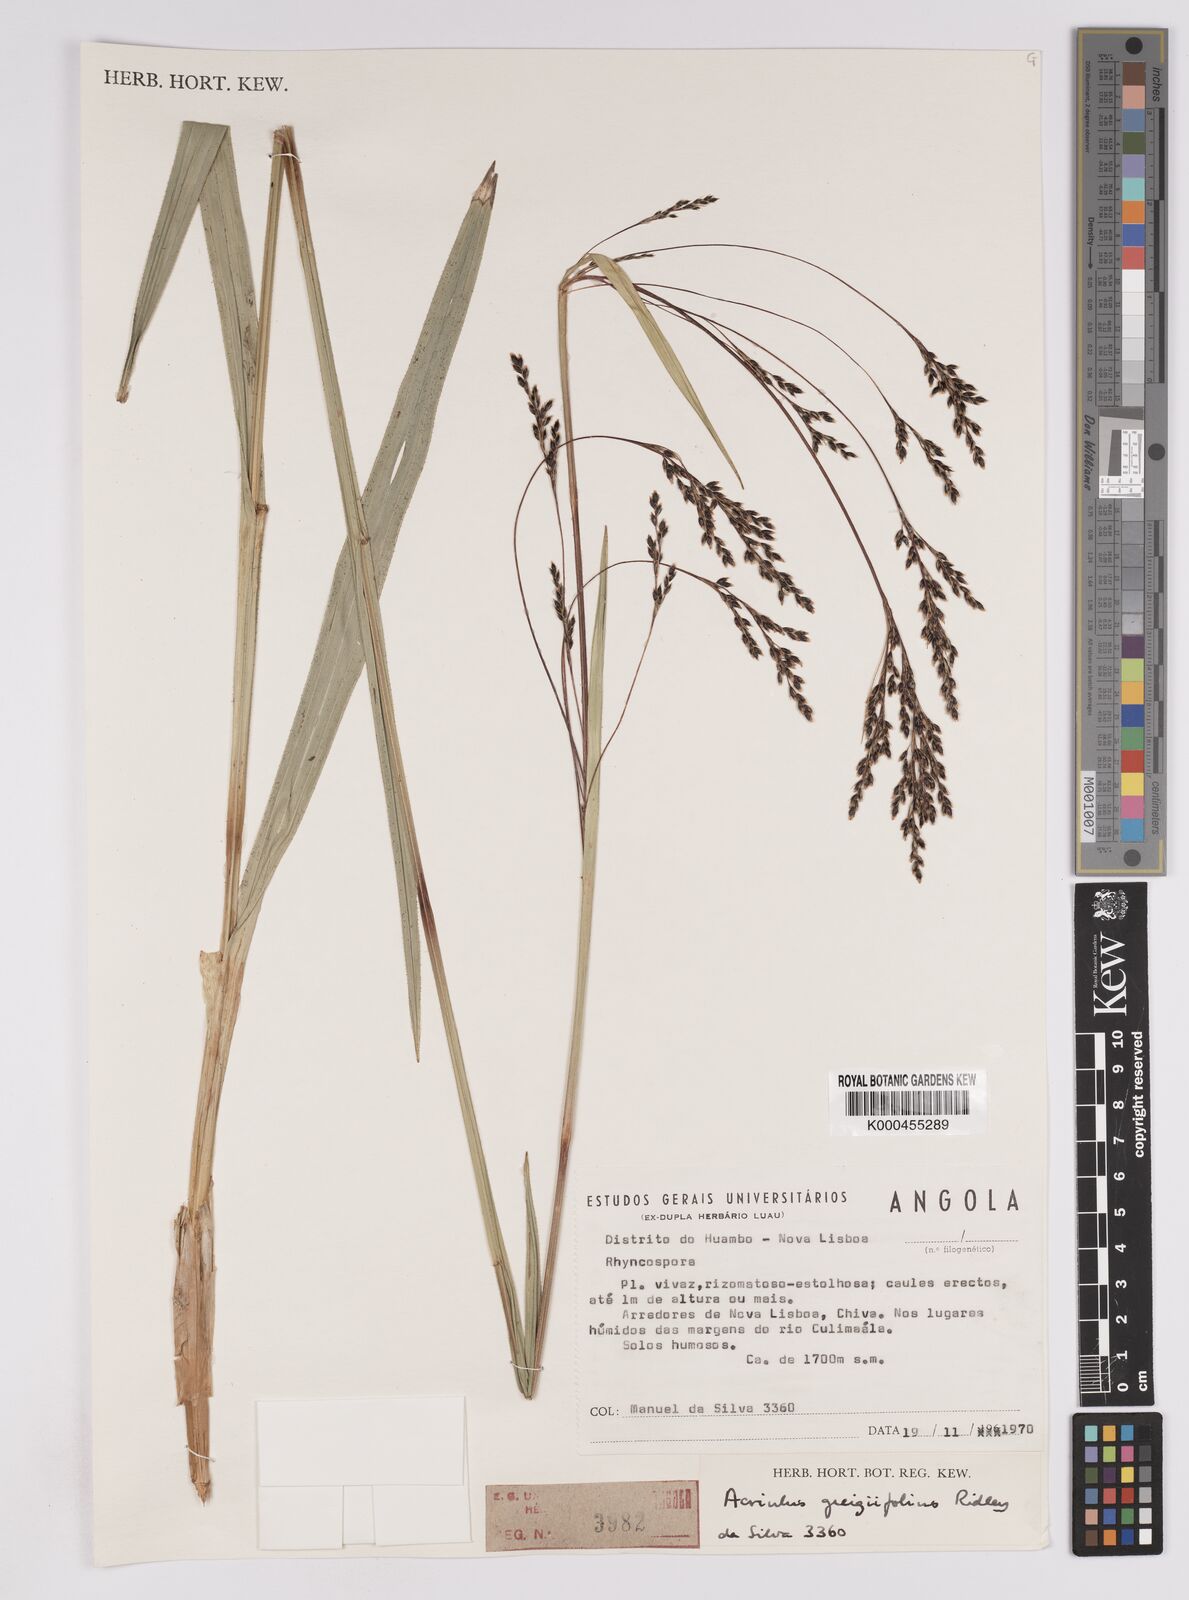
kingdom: Plantae
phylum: Tracheophyta
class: Liliopsida
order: Poales
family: Cyperaceae
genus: Scleria
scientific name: Scleria greigiifolia
